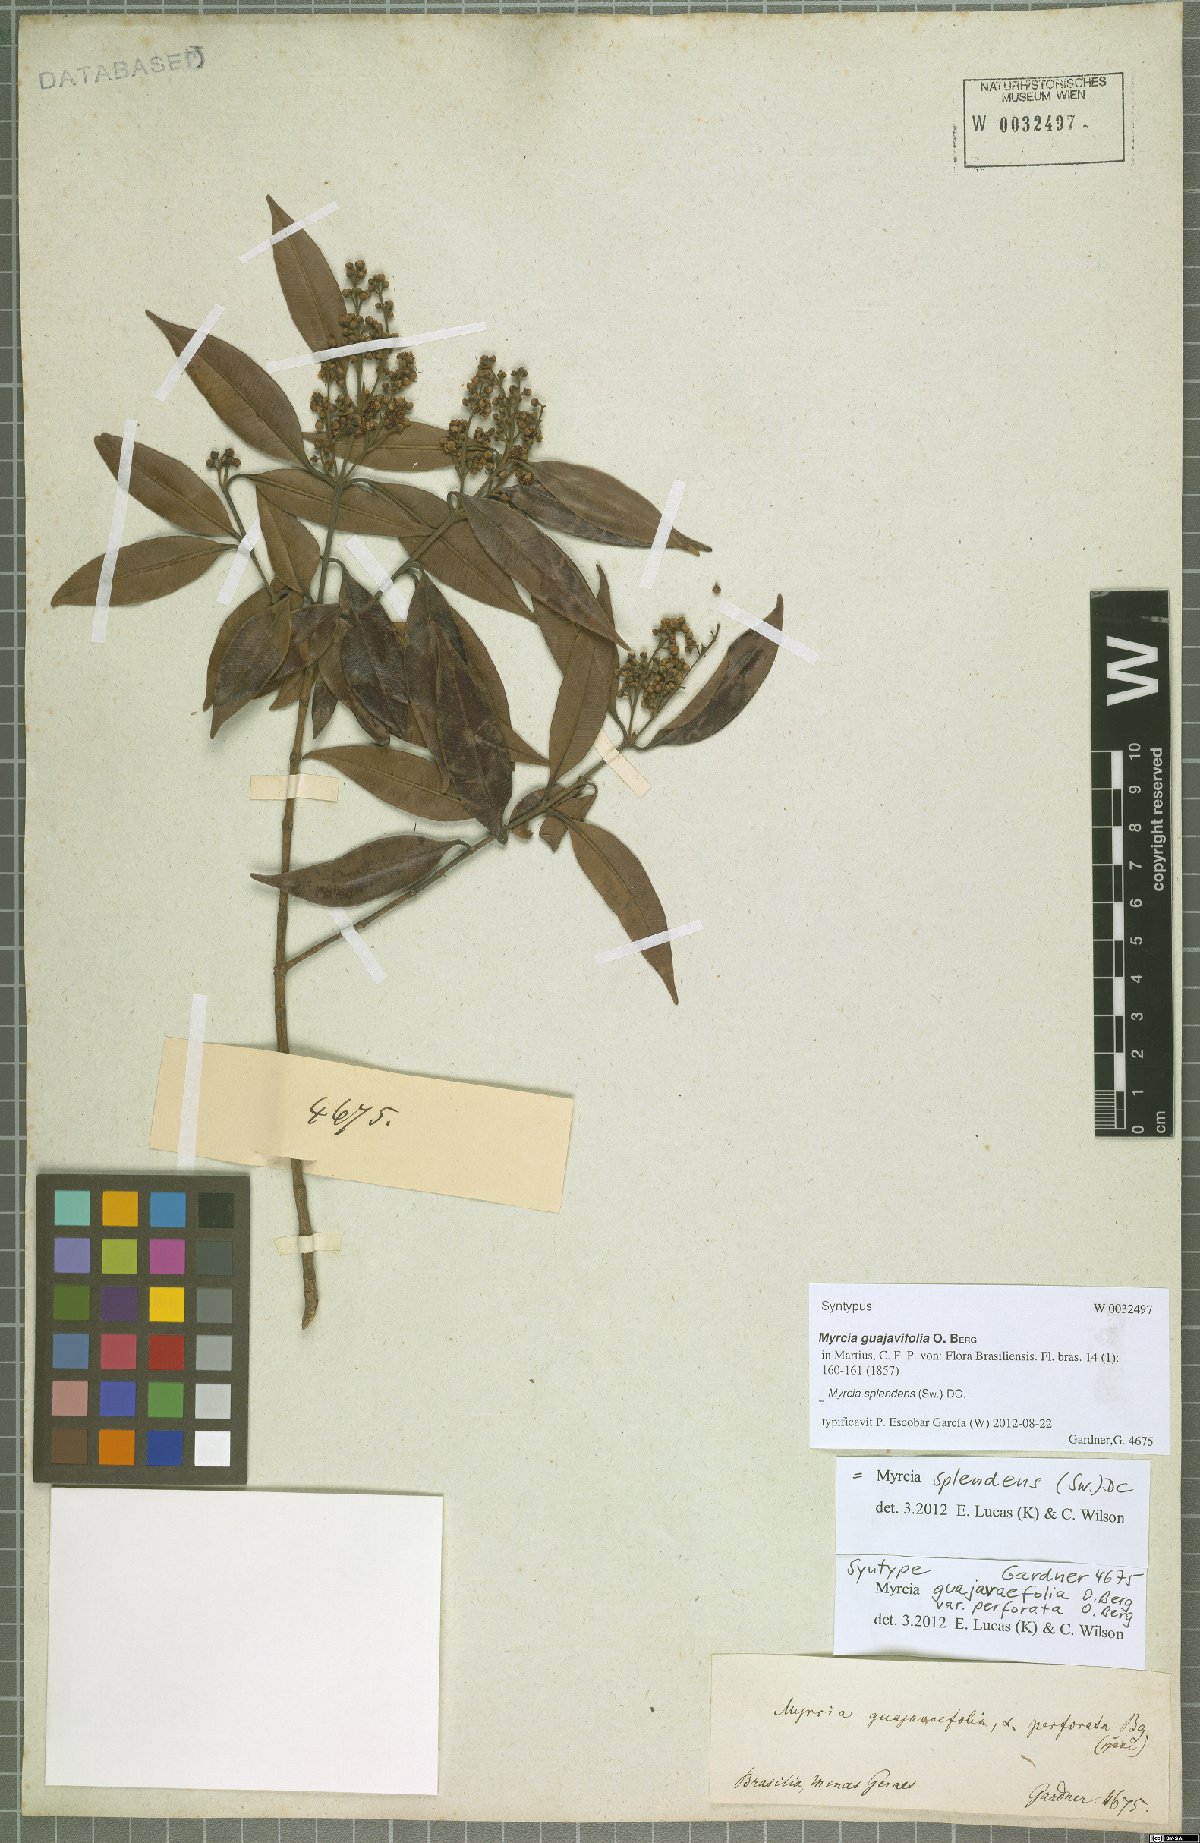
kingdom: Plantae
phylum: Tracheophyta
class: Magnoliopsida
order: Myrtales
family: Myrtaceae
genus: Myrcia
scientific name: Myrcia splendens
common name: Surinam cherry
